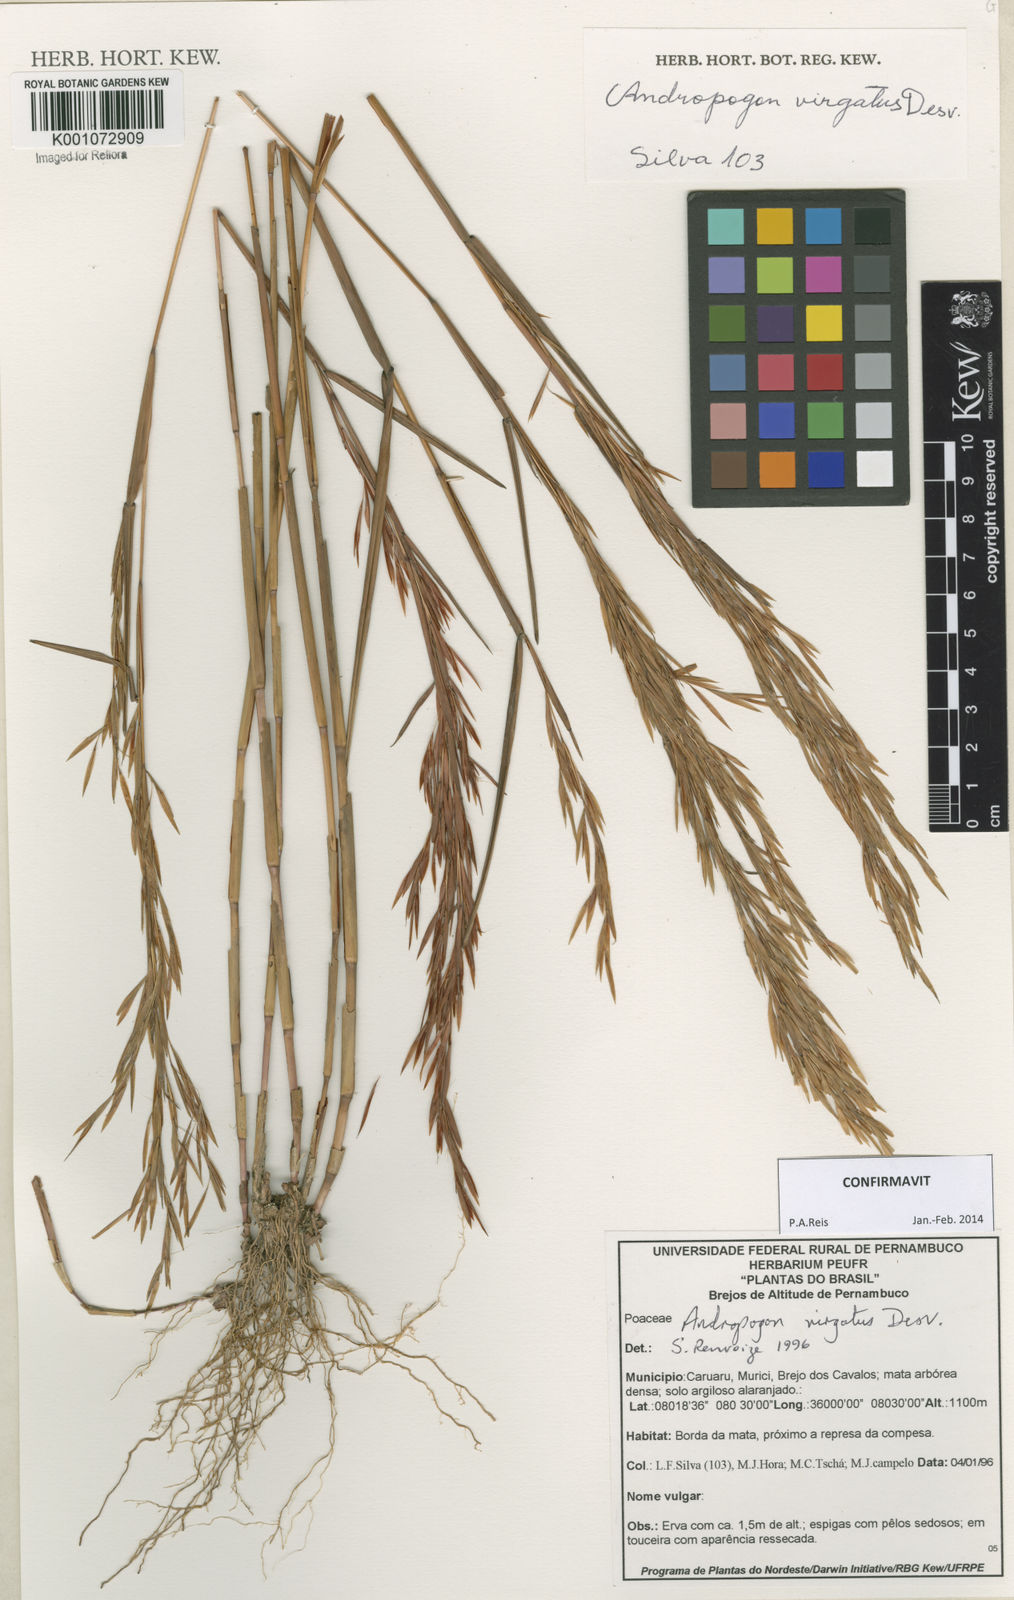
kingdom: Plantae
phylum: Tracheophyta
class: Liliopsida
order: Poales
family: Poaceae
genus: Andropogon
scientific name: Andropogon virgatus
